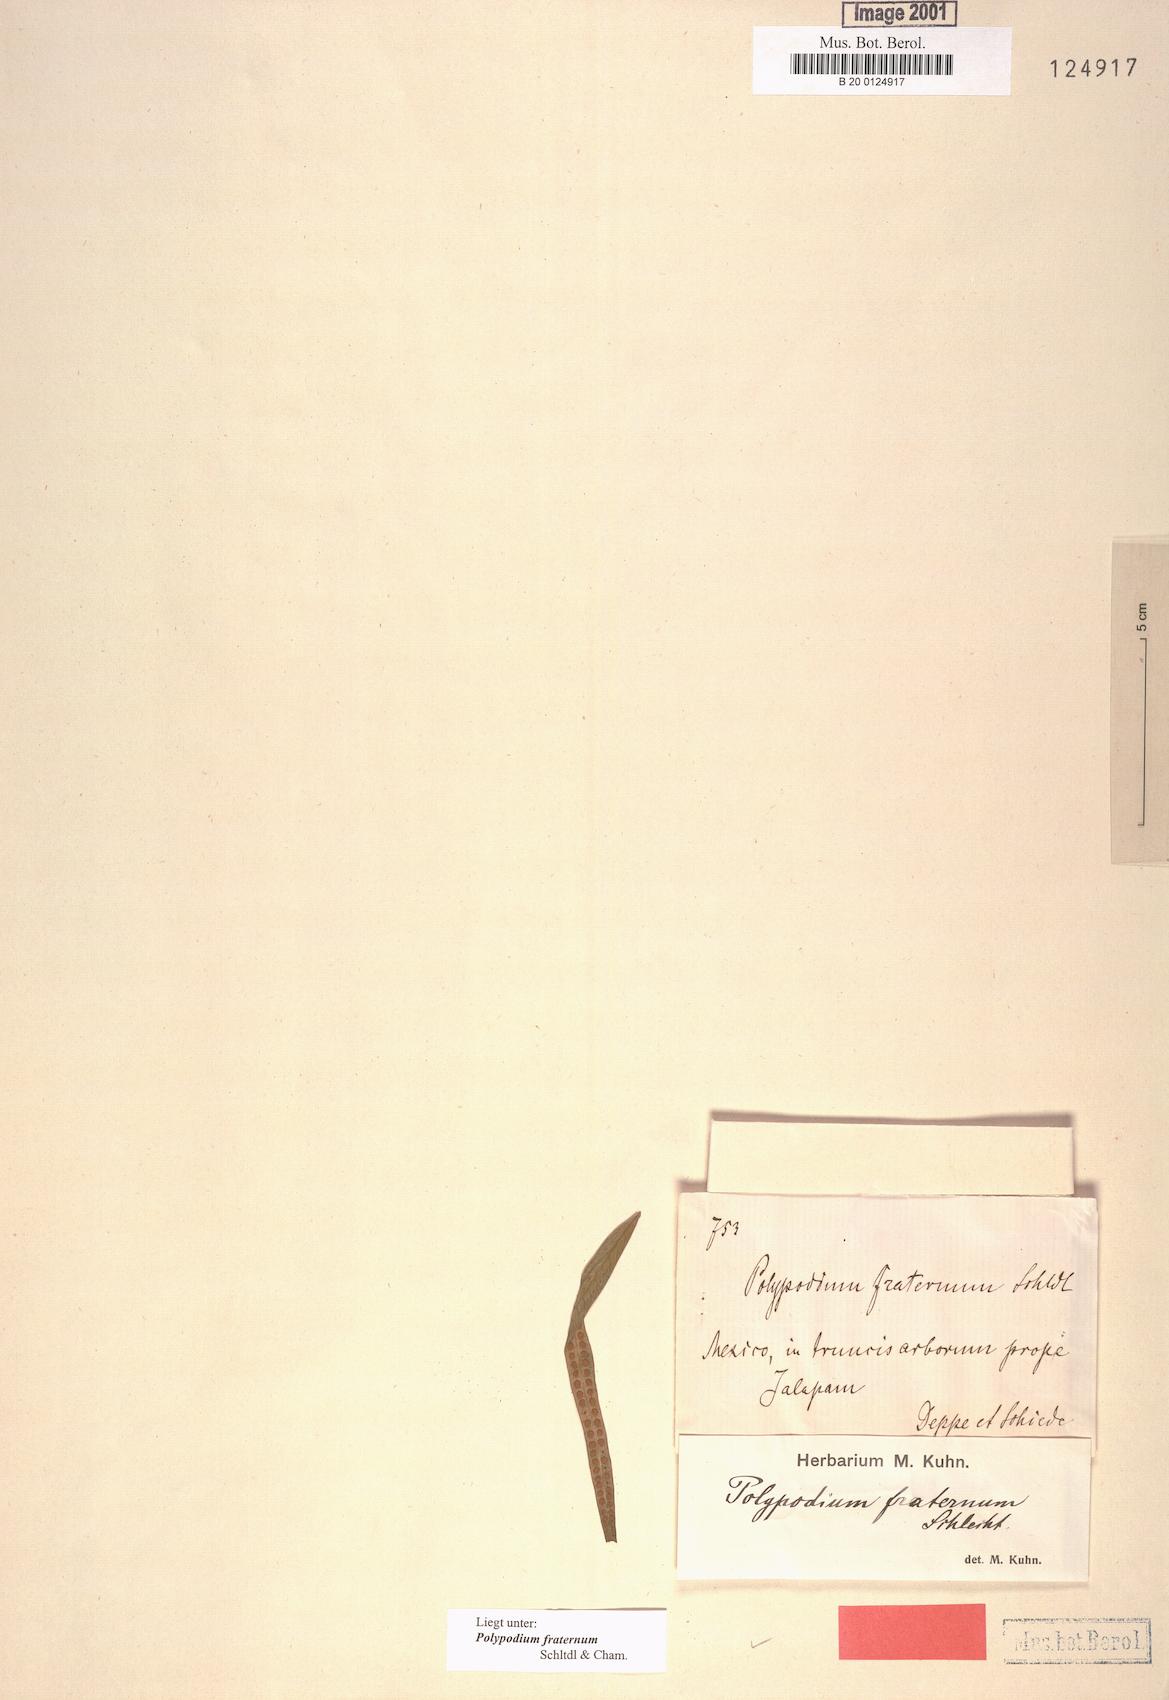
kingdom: Plantae
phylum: Tracheophyta
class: Polypodiopsida
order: Polypodiales
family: Polypodiaceae
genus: Polypodium
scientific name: Polypodium fraternum
